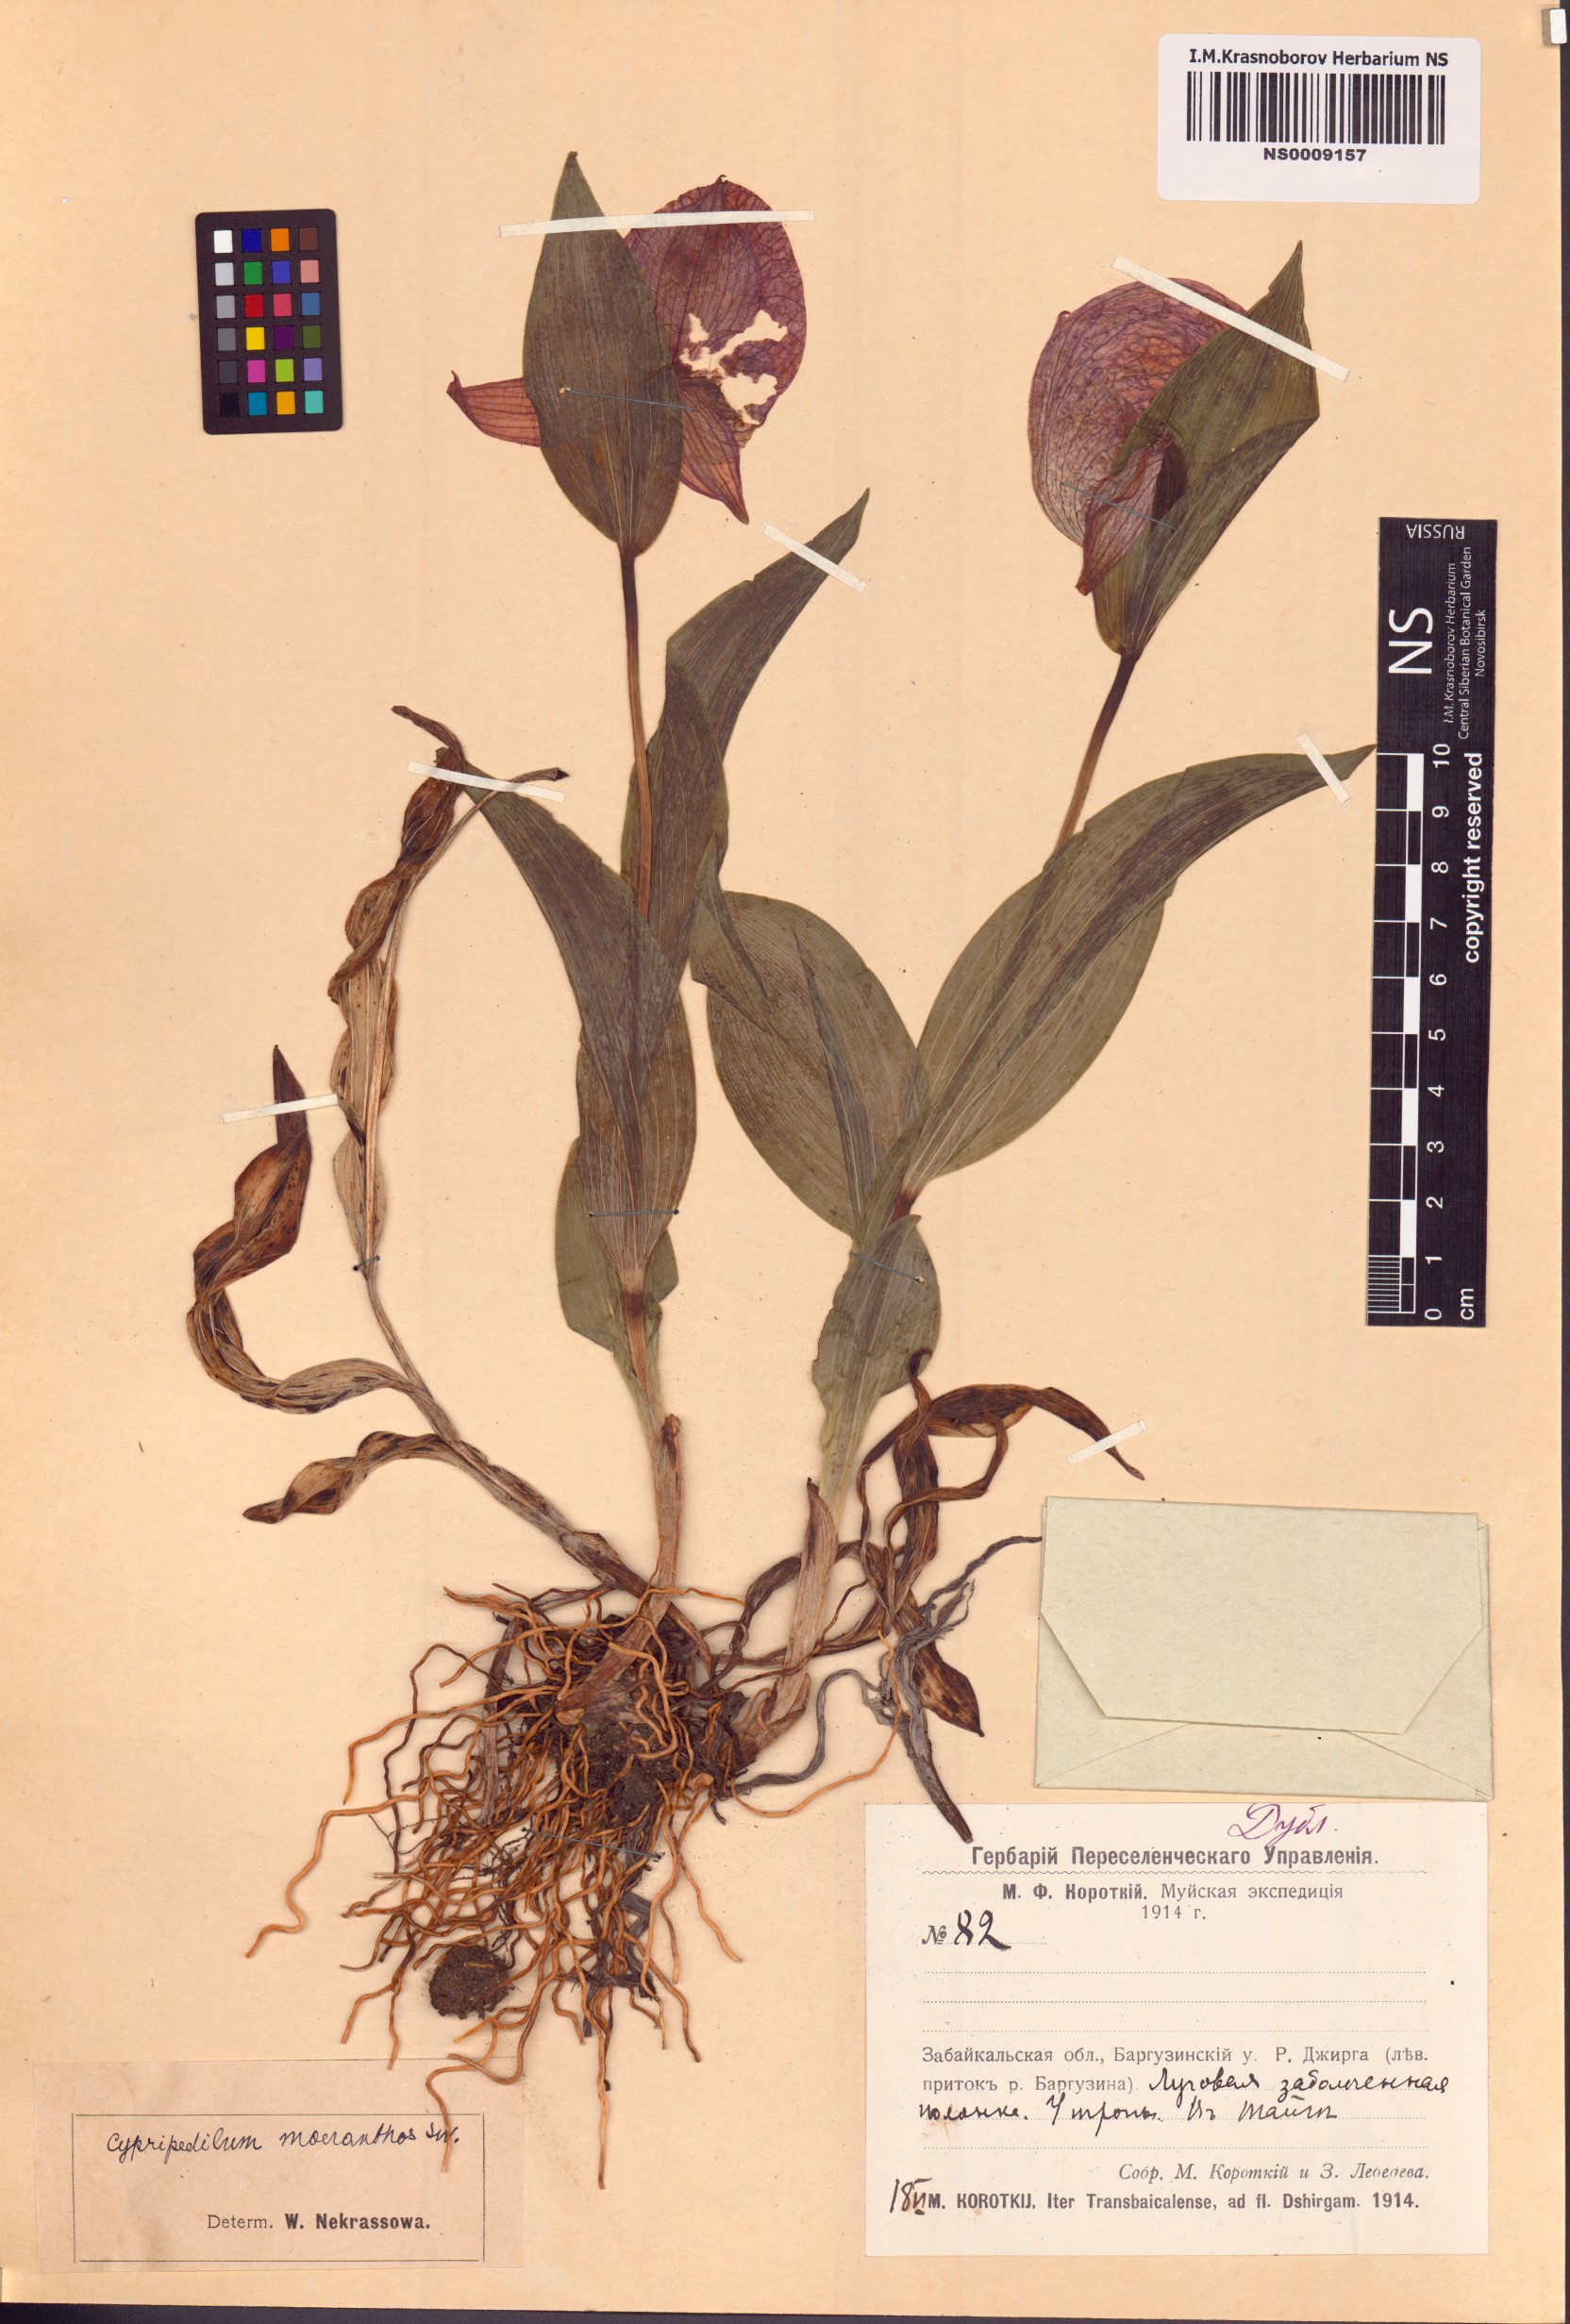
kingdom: Plantae
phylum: Tracheophyta
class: Liliopsida
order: Asparagales
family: Orchidaceae
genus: Cypripedium
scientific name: Cypripedium macranthos
